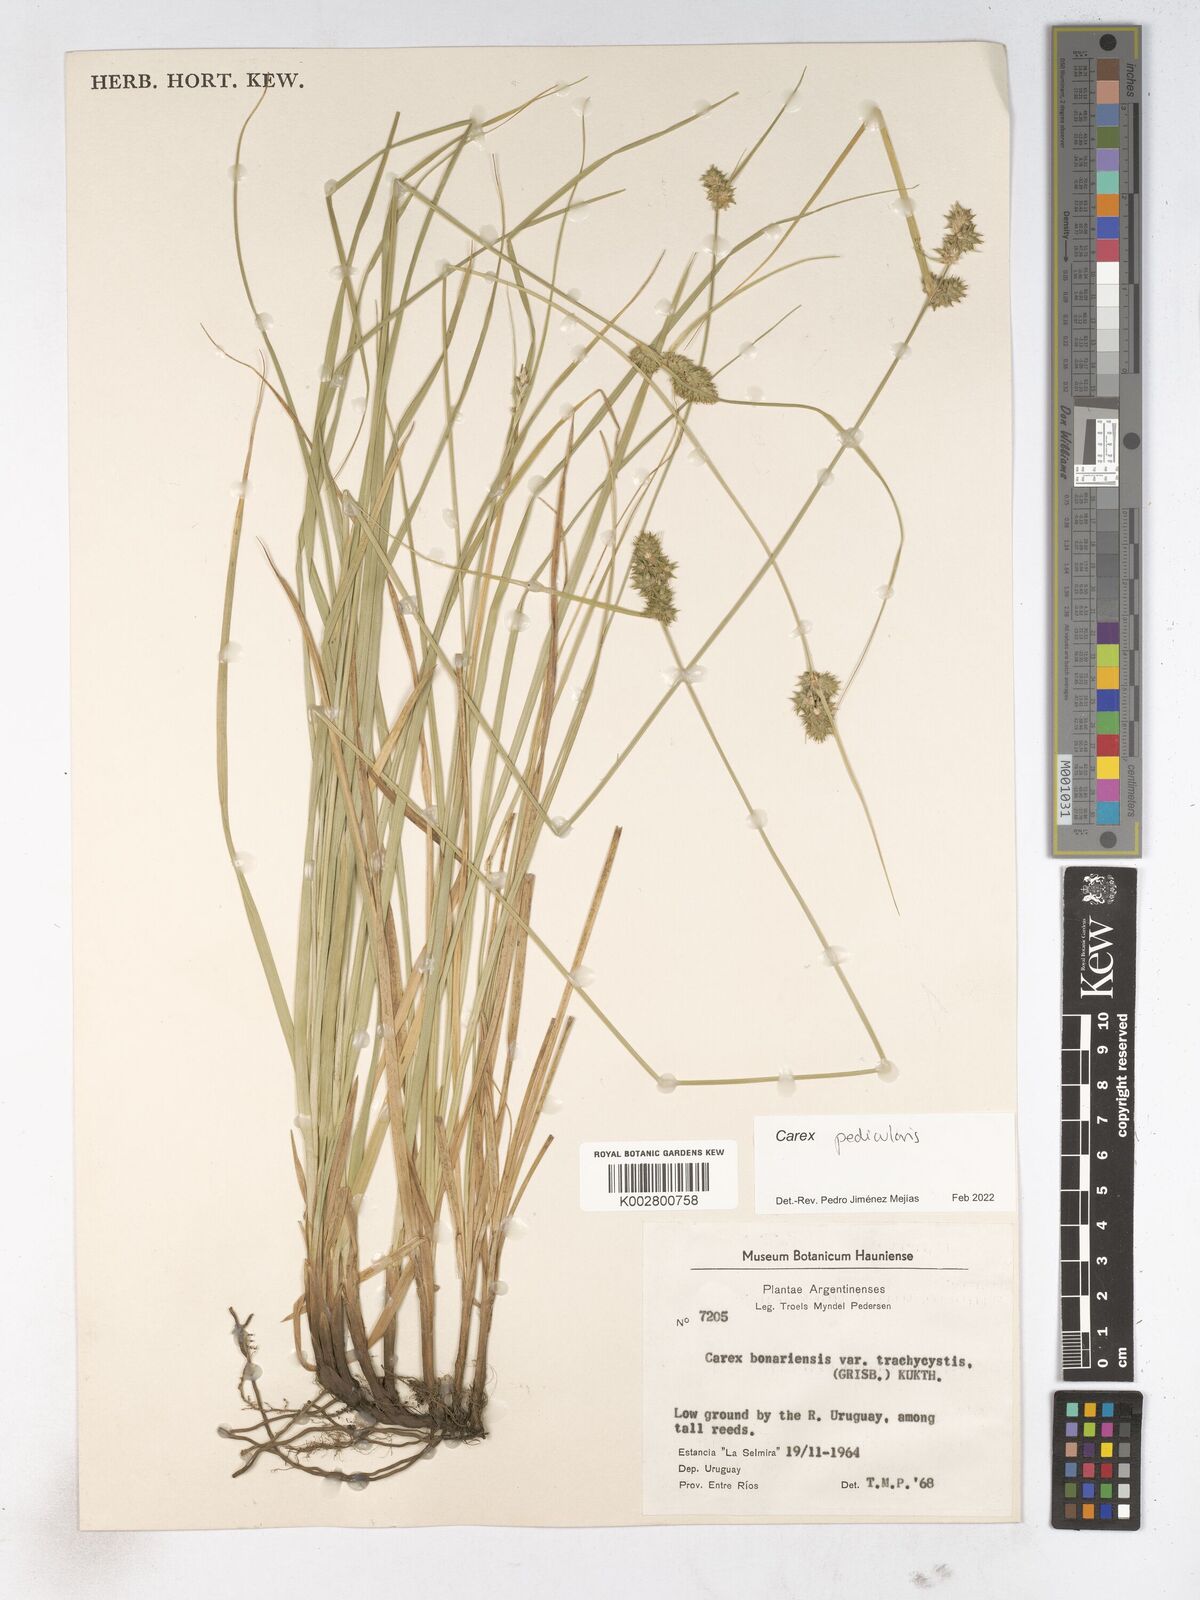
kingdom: Plantae
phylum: Tracheophyta
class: Liliopsida
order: Poales
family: Cyperaceae
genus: Carex
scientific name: Carex bonariensis
